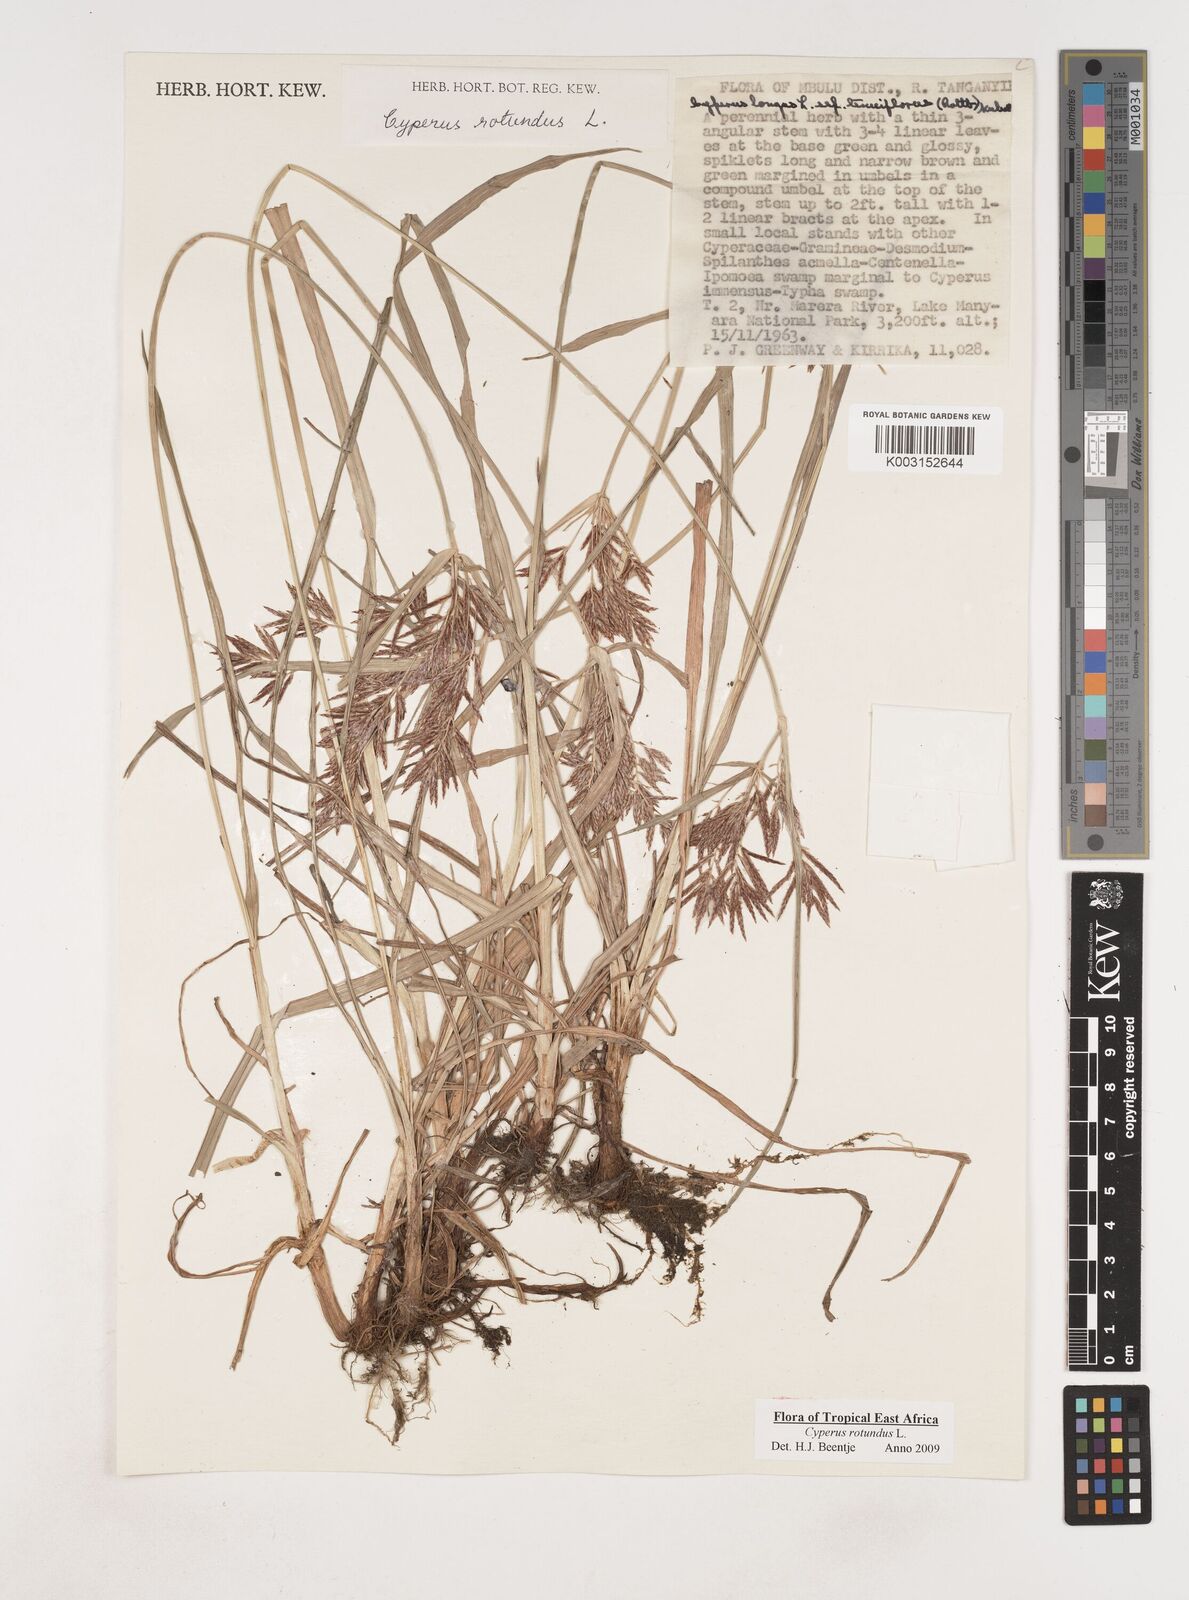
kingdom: Plantae
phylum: Tracheophyta
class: Liliopsida
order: Poales
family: Cyperaceae
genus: Cyperus
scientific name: Cyperus rotundus
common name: Nutgrass
